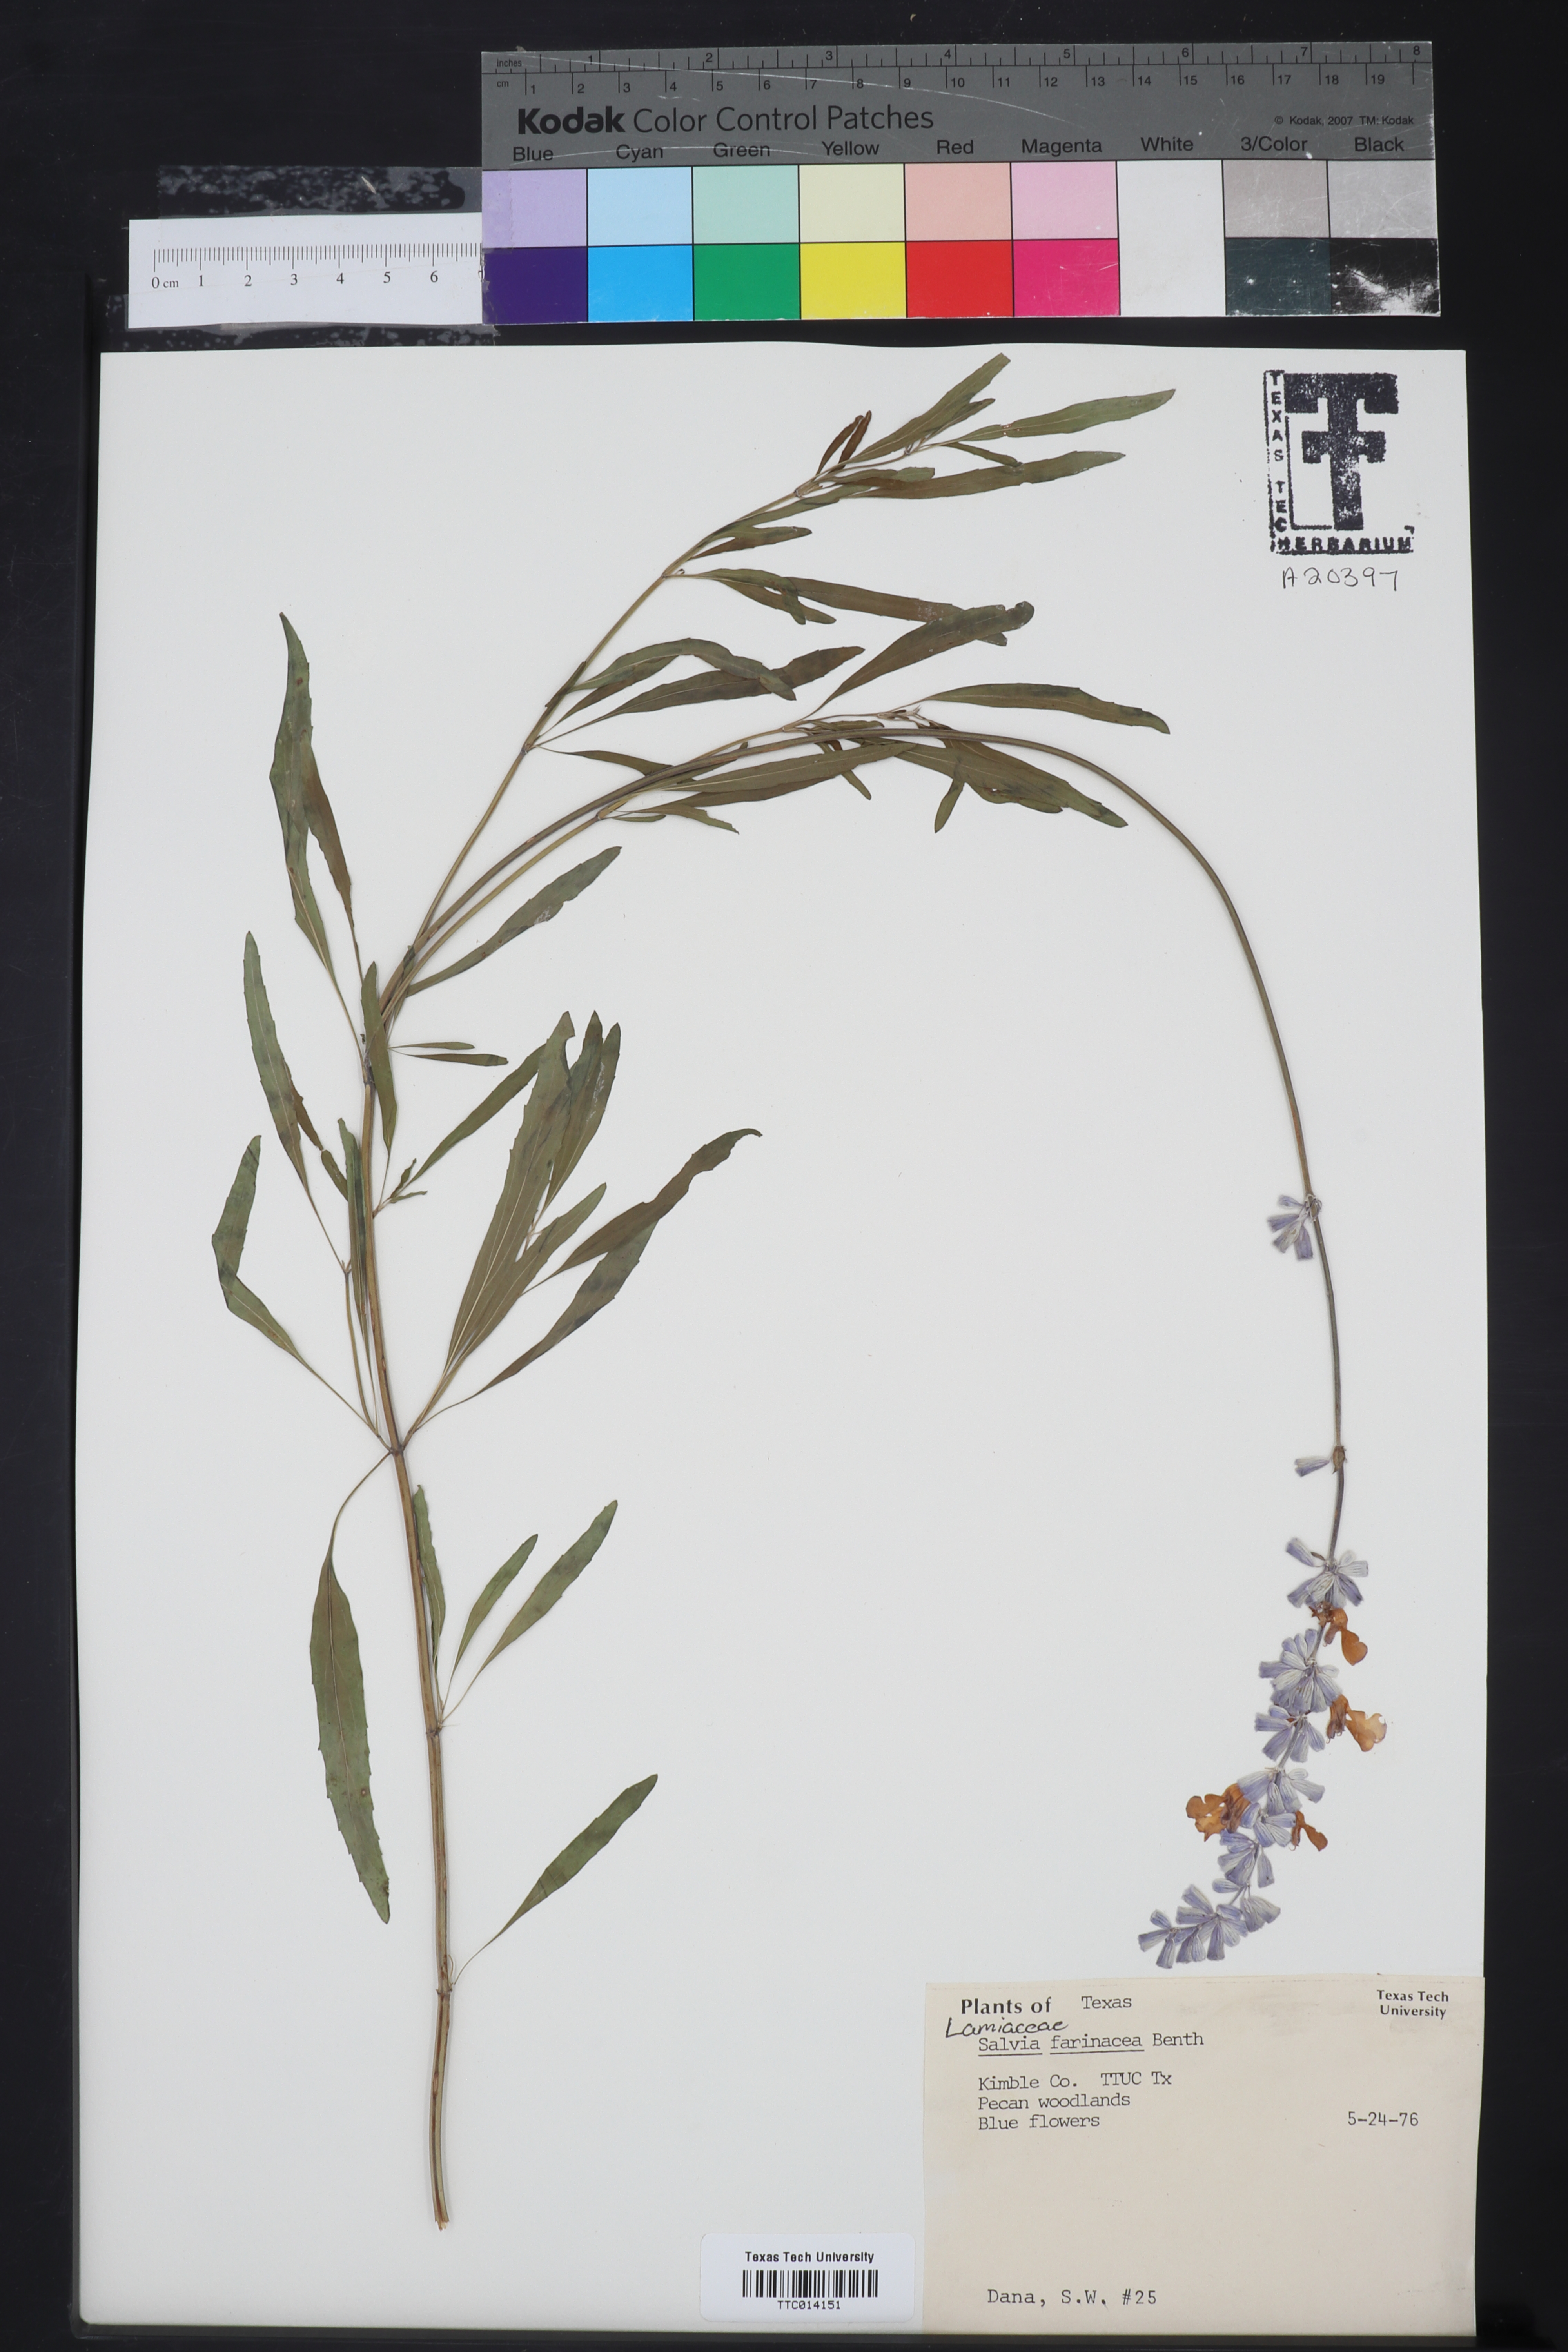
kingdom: Plantae
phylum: Tracheophyta
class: Magnoliopsida
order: Lamiales
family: Lamiaceae
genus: Salvia
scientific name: Salvia farinacea
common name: Mealy sage
